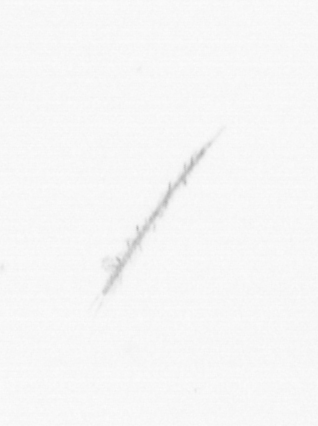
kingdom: Chromista
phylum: Ochrophyta
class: Bacillariophyceae
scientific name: Bacillariophyceae
